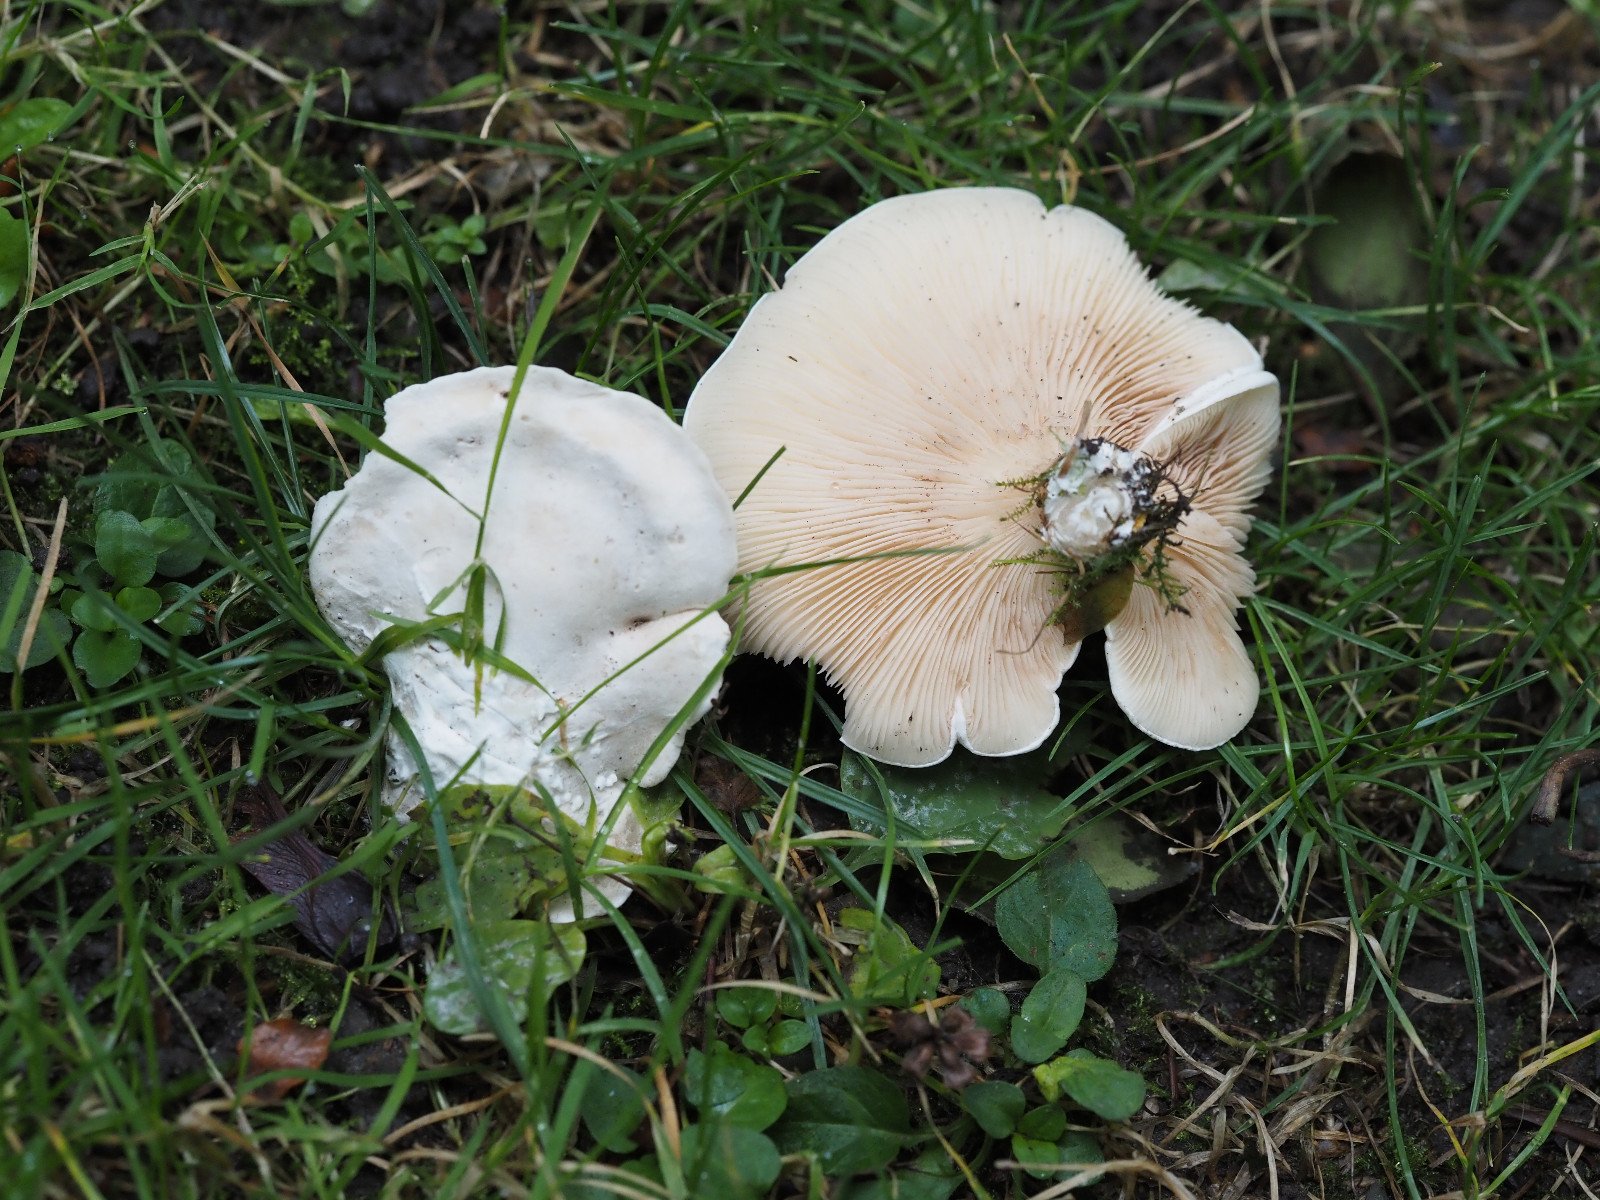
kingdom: Fungi
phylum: Basidiomycota
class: Agaricomycetes
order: Agaricales
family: Entolomataceae
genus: Clitopilus
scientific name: Clitopilus prunulus
